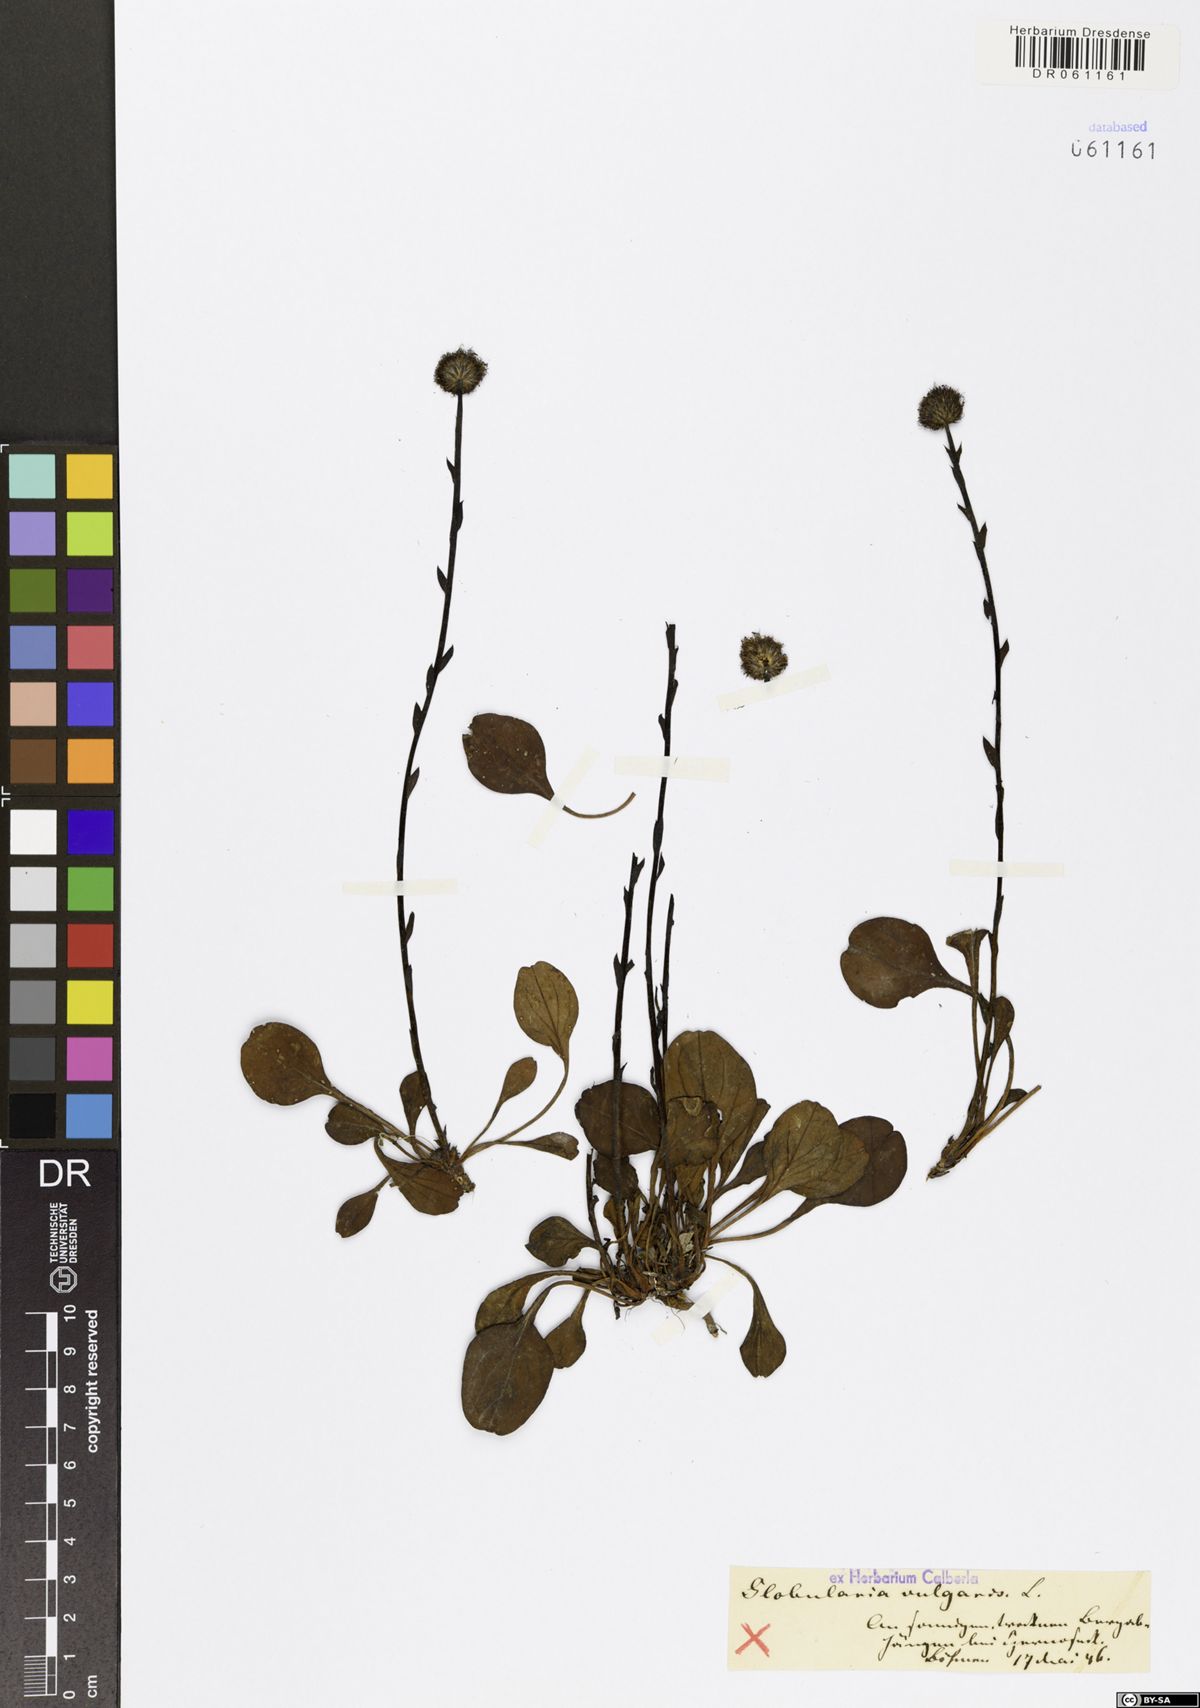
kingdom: Plantae
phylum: Tracheophyta
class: Magnoliopsida
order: Lamiales
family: Plantaginaceae
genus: Globularia
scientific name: Globularia vulgaris
